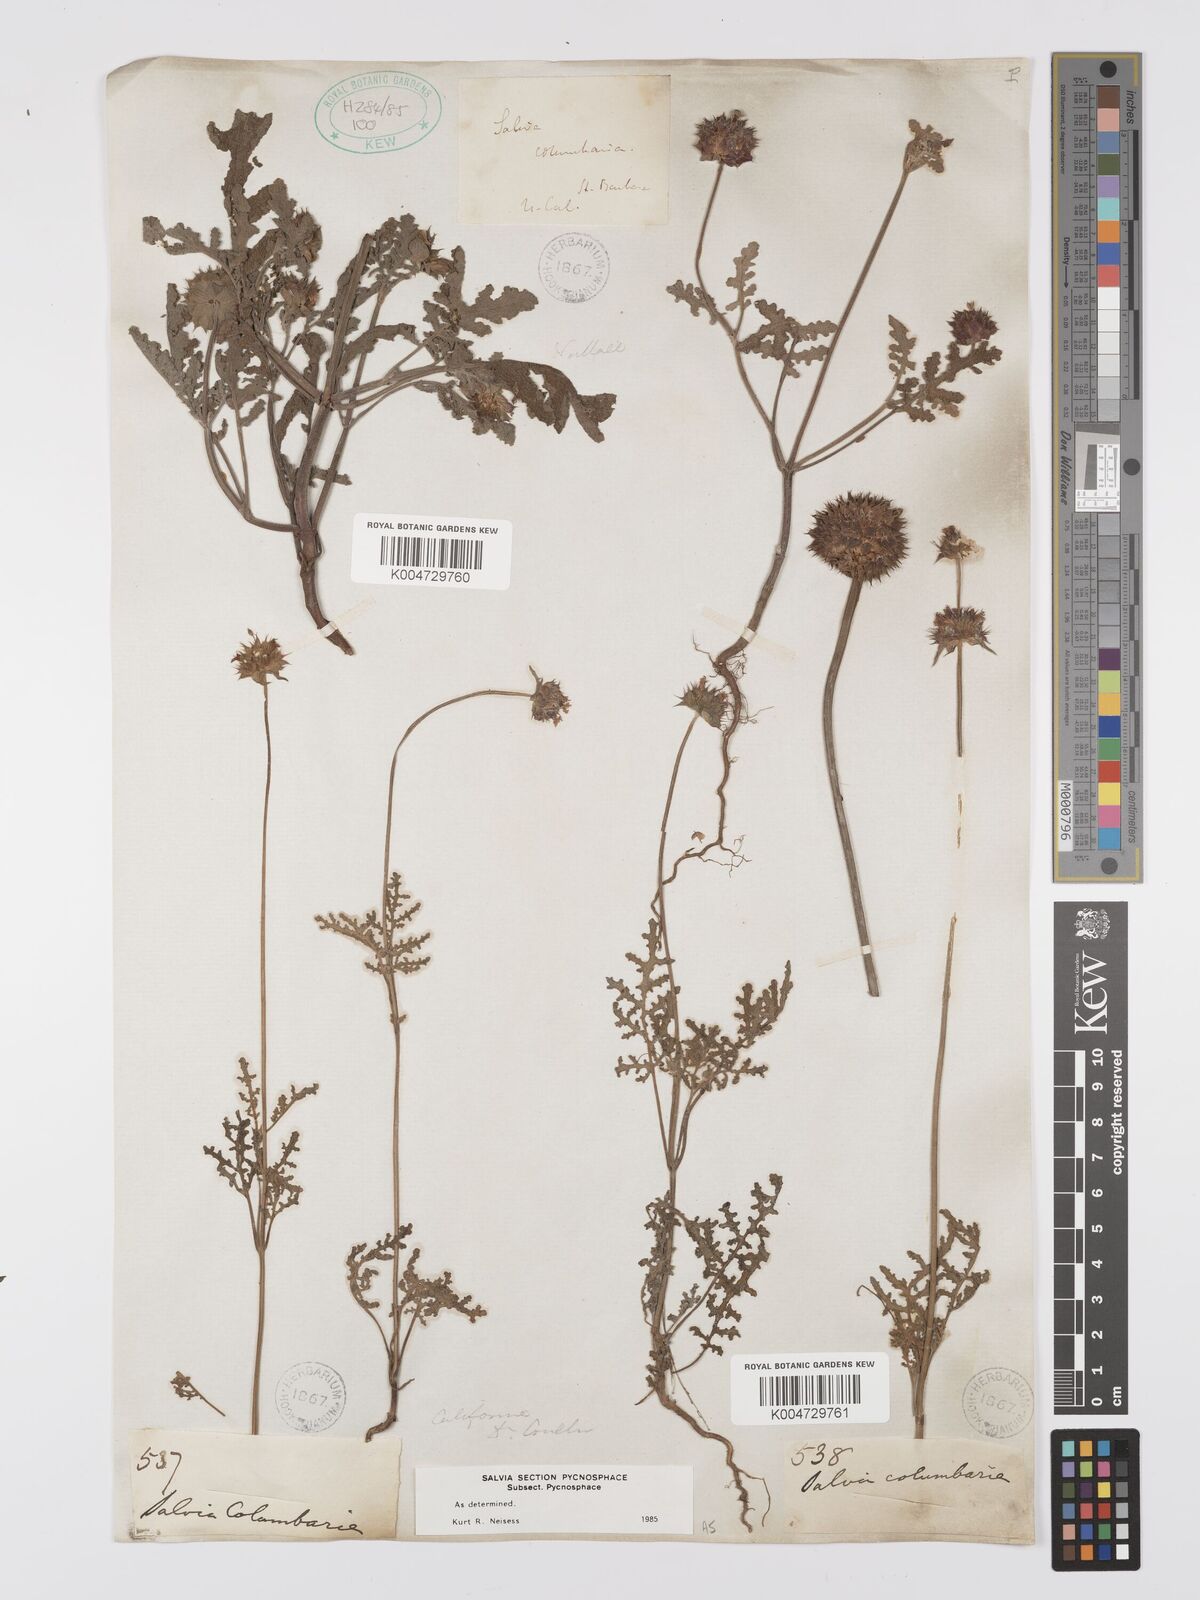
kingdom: Plantae
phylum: Tracheophyta
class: Magnoliopsida
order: Lamiales
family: Lamiaceae
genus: Salvia
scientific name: Salvia columbariae
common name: Chia
